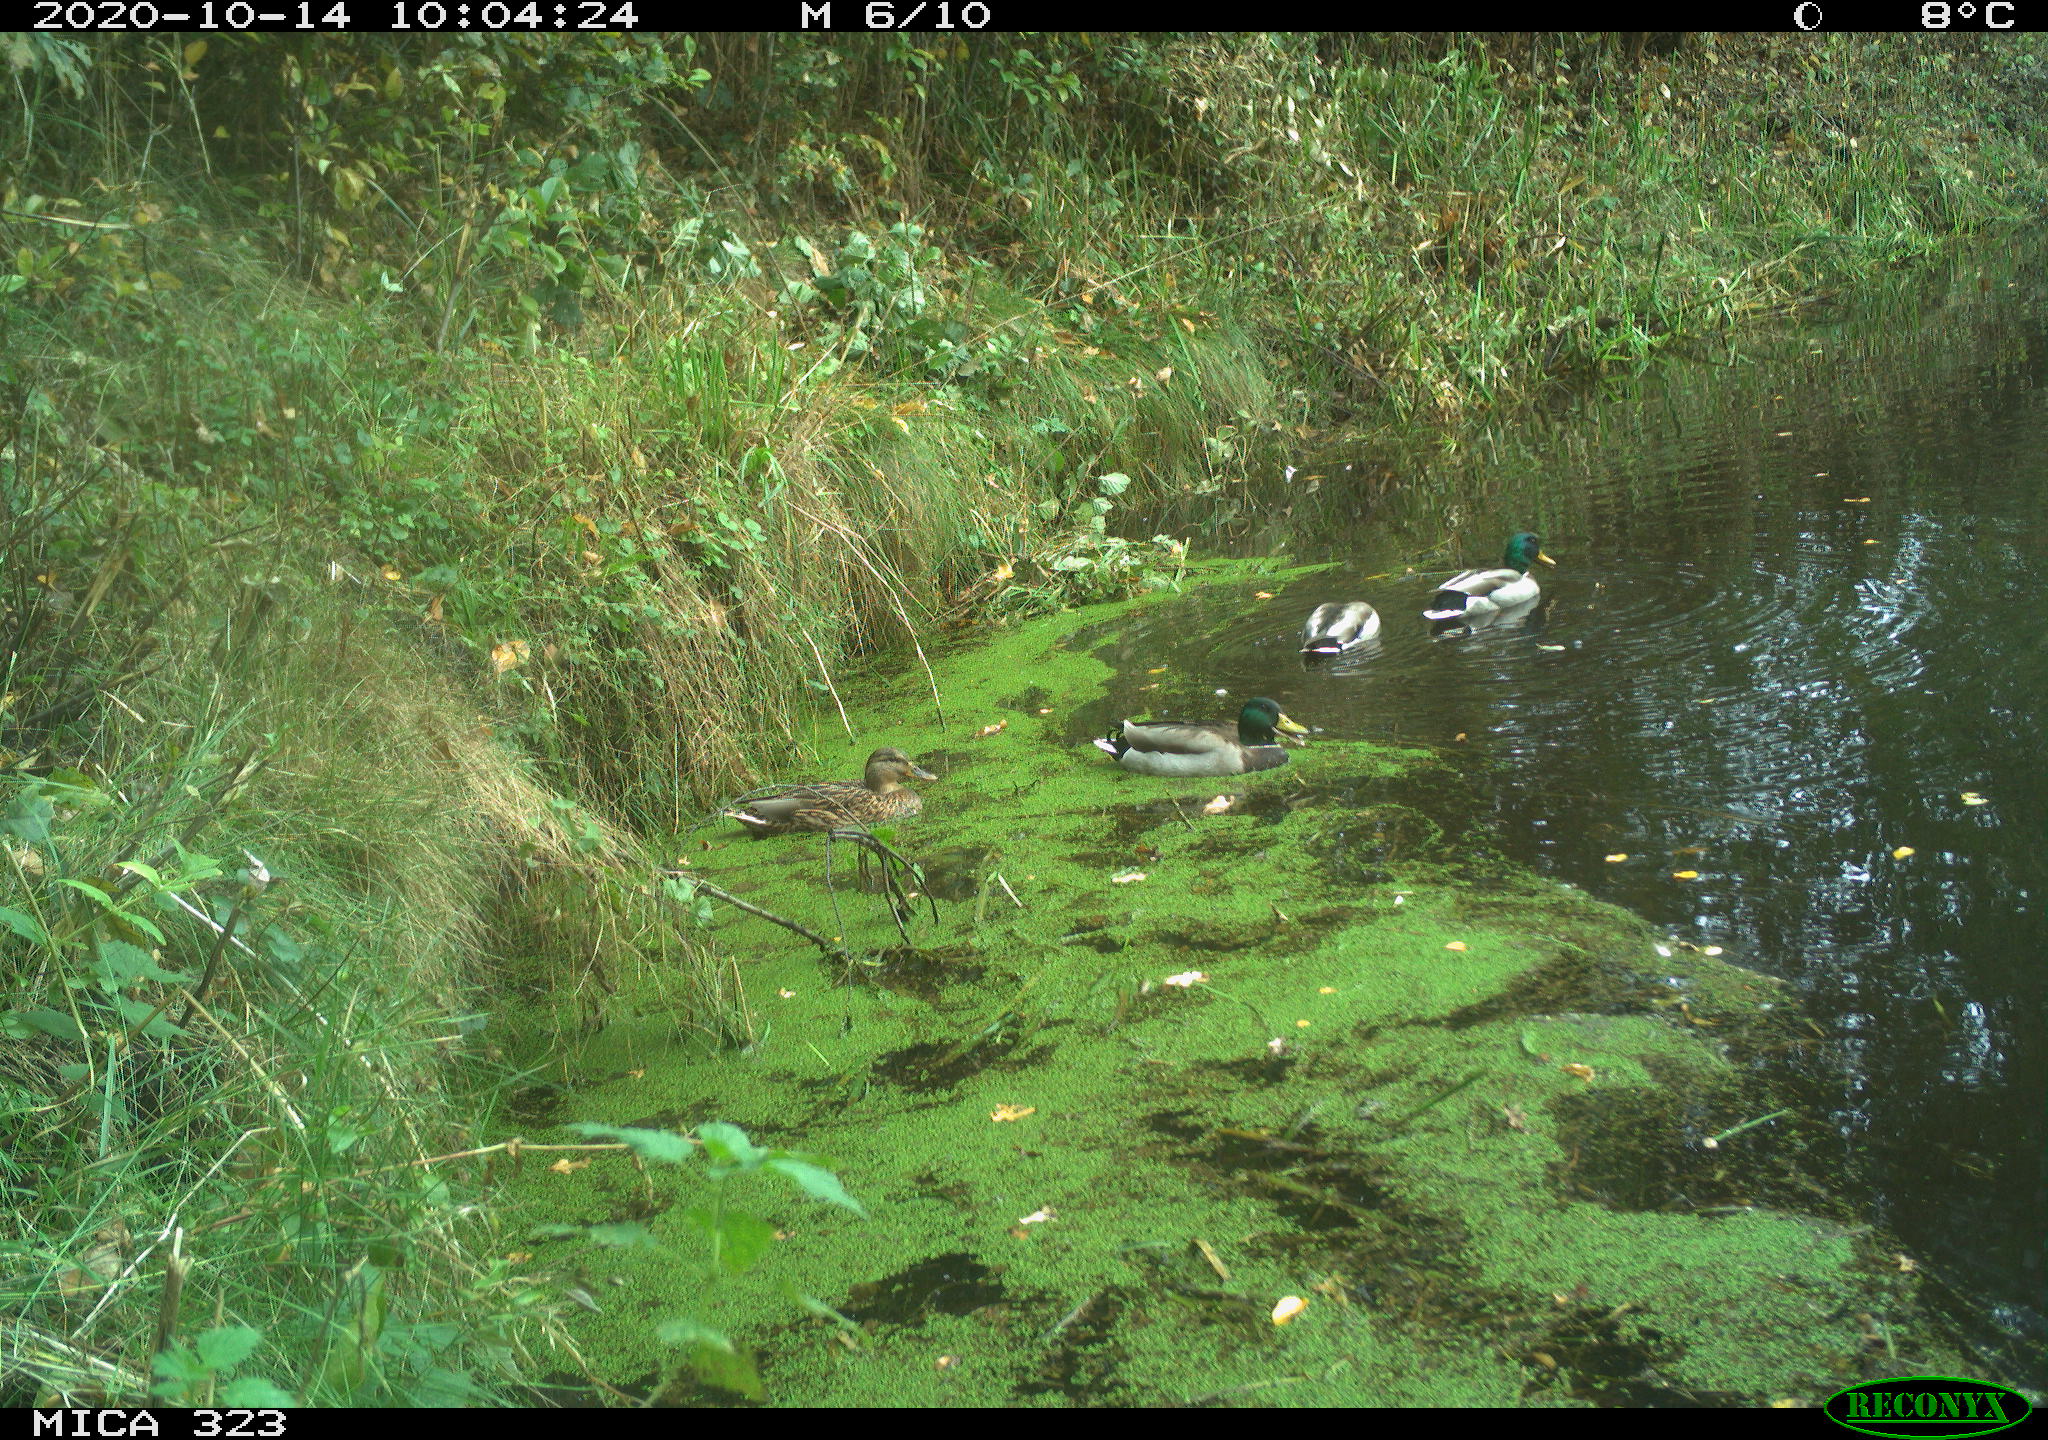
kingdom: Animalia
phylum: Chordata
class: Aves
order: Anseriformes
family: Anatidae
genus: Anas
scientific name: Anas platyrhynchos
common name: Mallard
